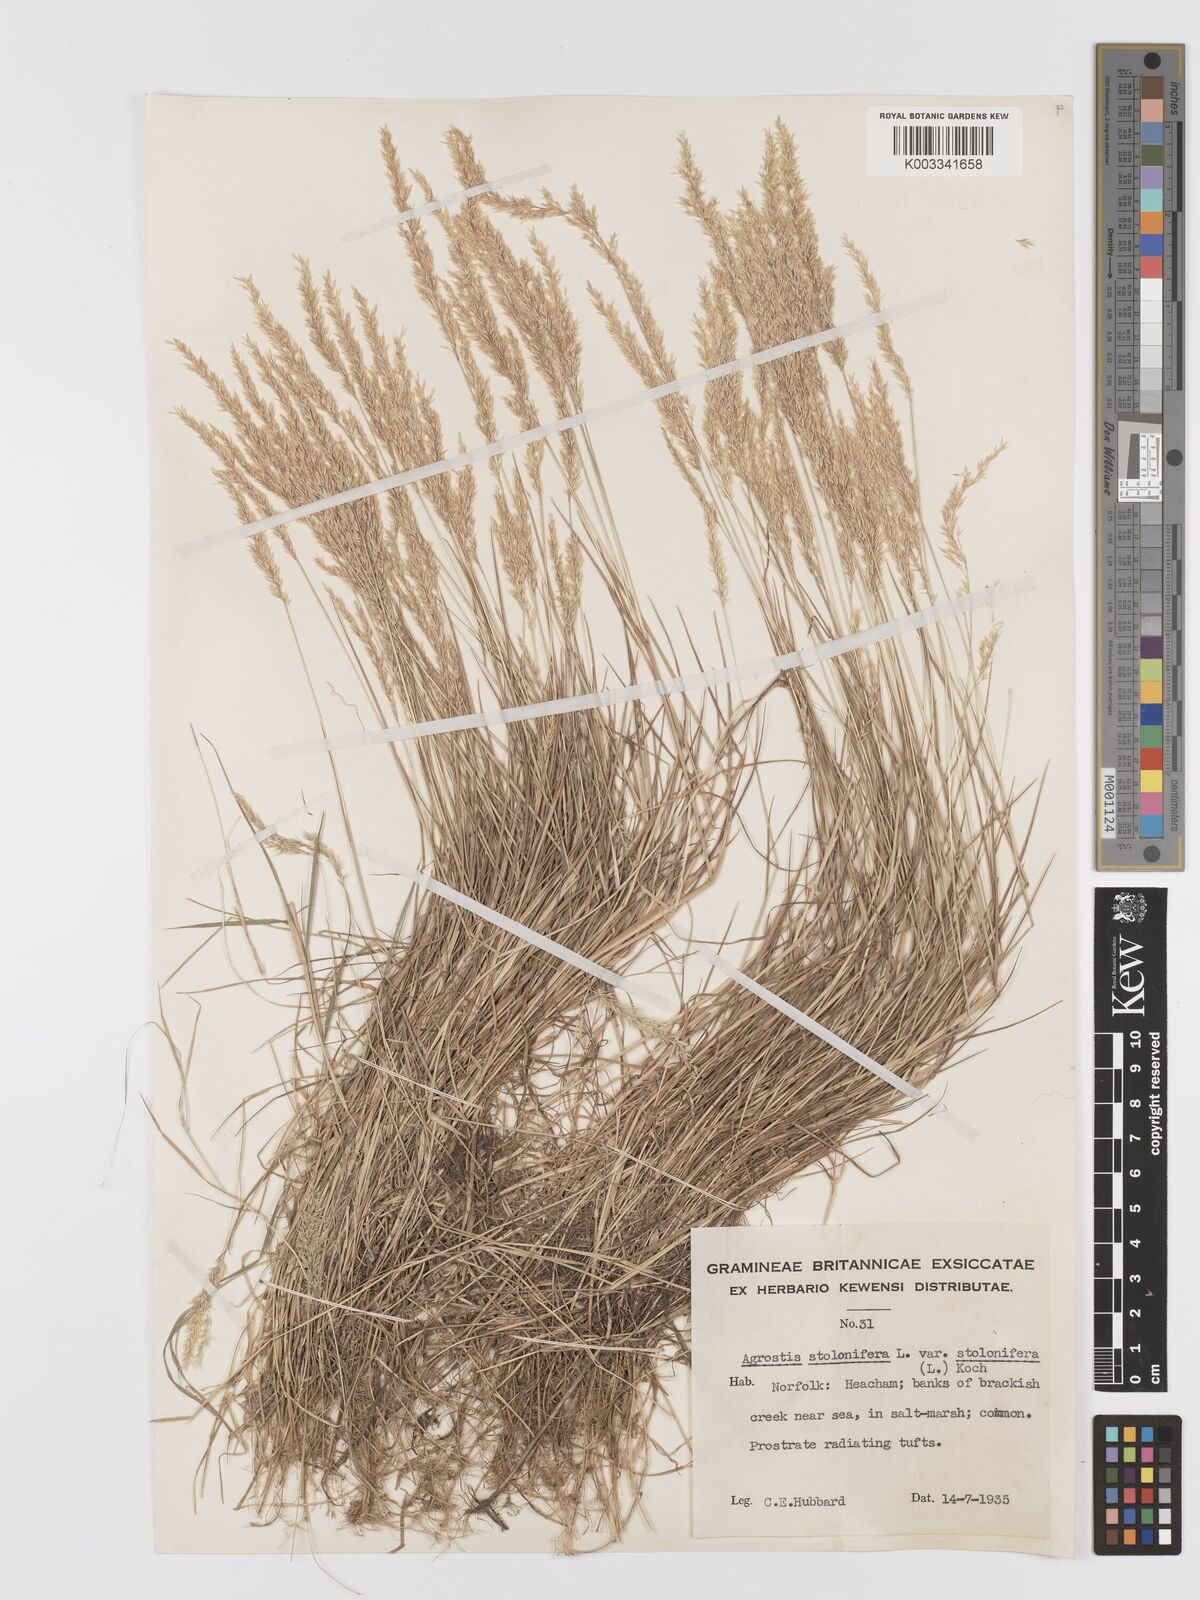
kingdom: Plantae
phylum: Tracheophyta
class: Liliopsida
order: Poales
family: Poaceae
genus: Agrostis
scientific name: Agrostis stolonifera
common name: Creeping bentgrass
